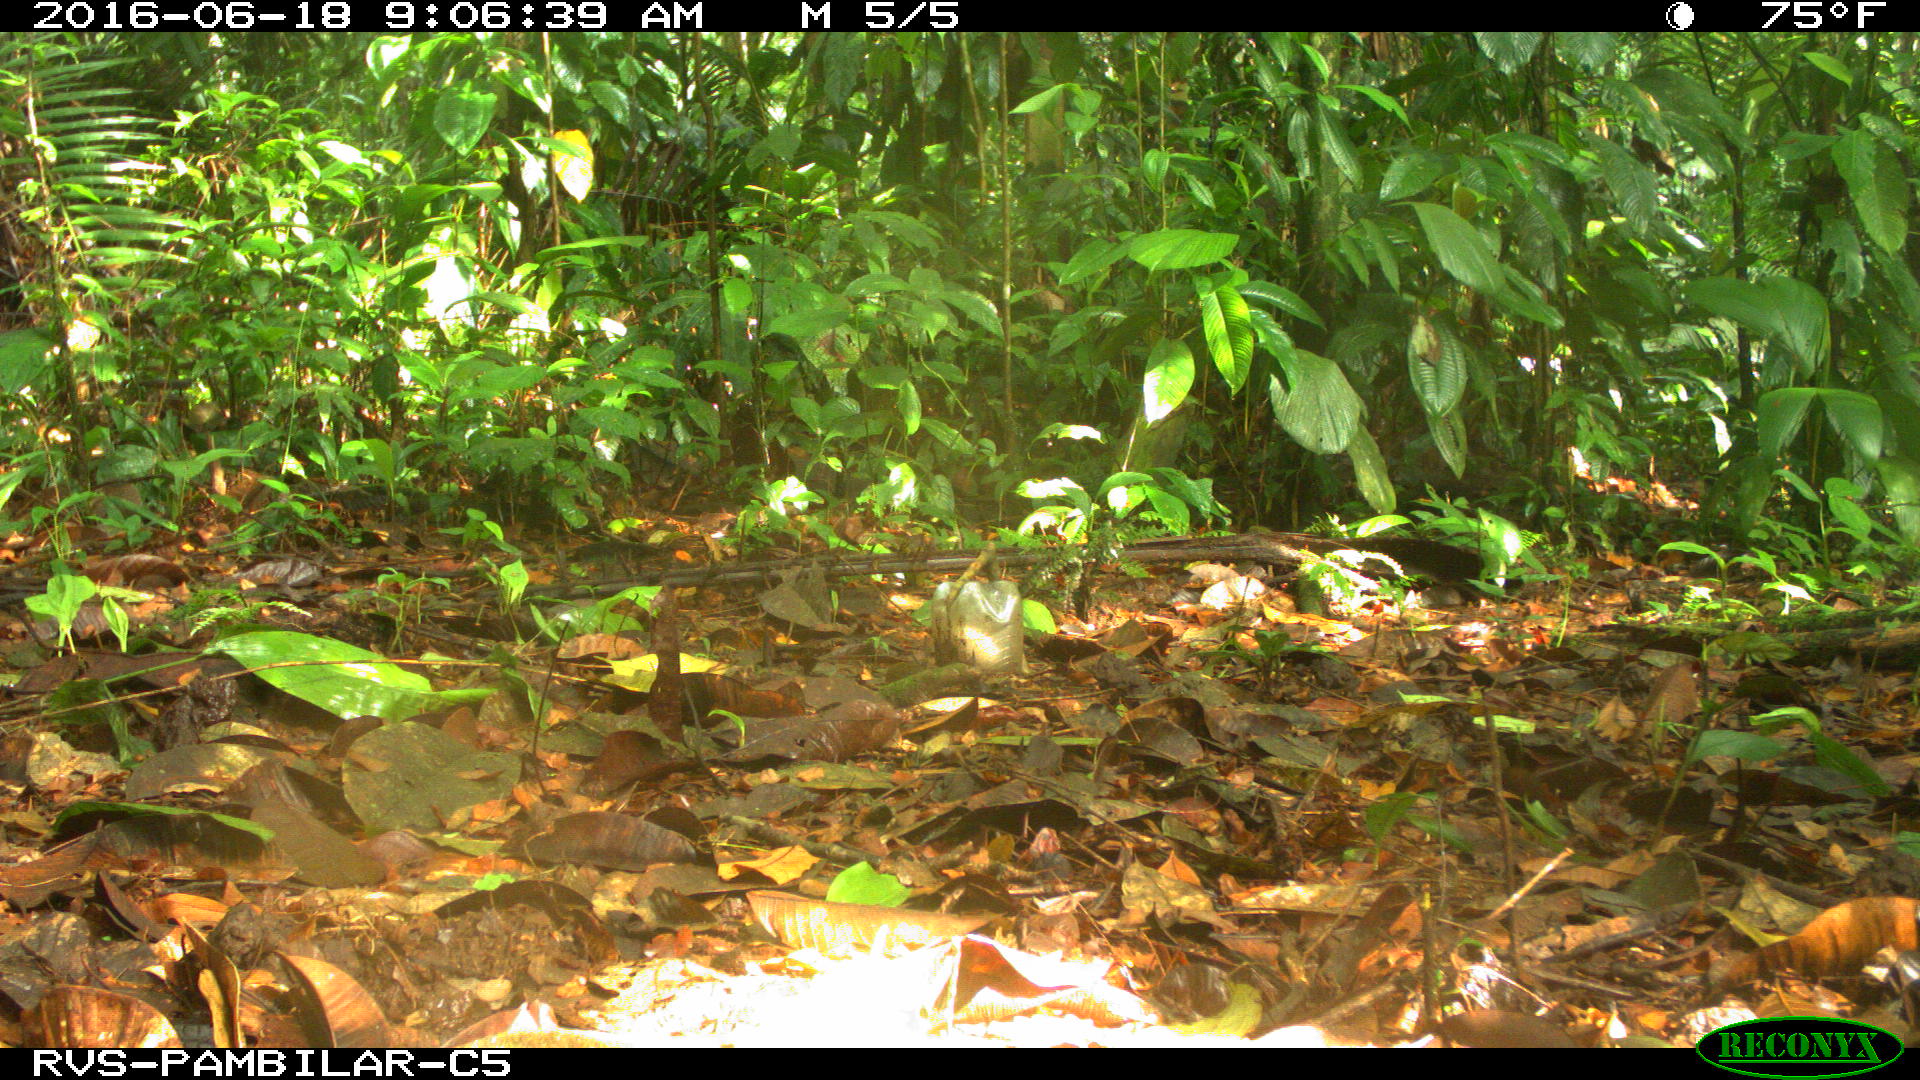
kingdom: Animalia
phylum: Chordata
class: Mammalia
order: Rodentia
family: Dasyproctidae
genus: Dasyprocta
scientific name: Dasyprocta punctata
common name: Central american agouti
